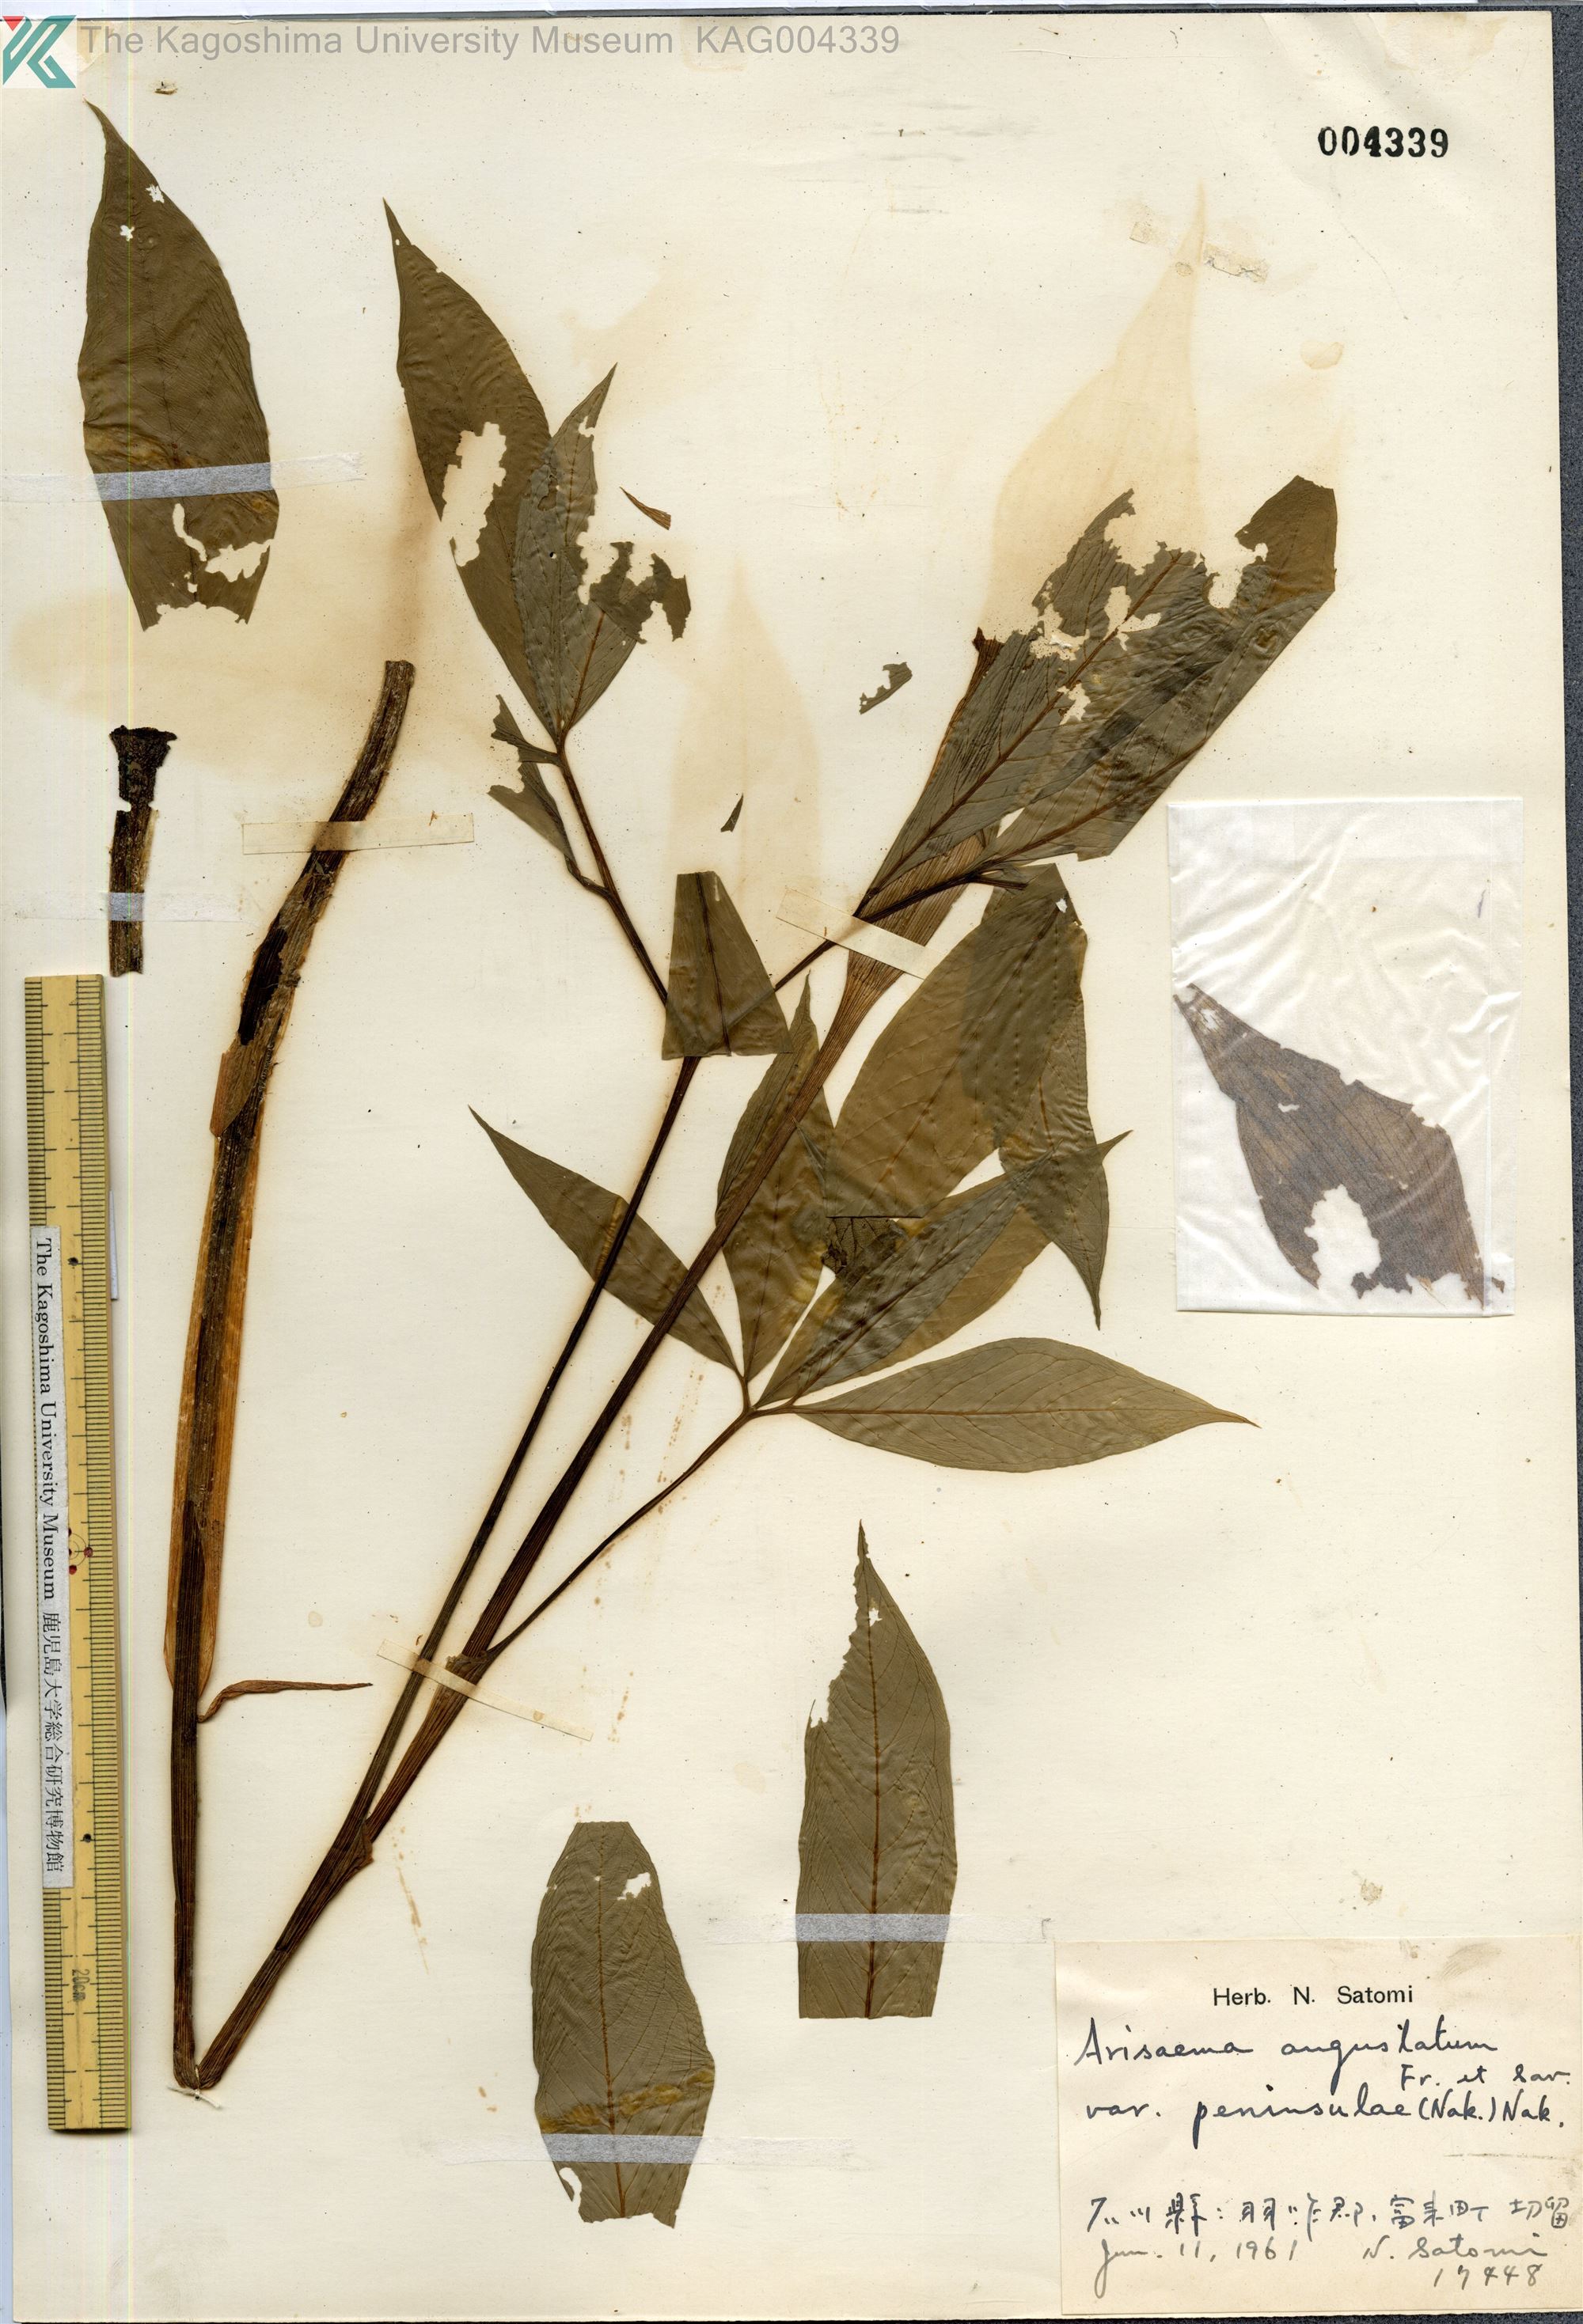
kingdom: Plantae
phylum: Tracheophyta
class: Liliopsida
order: Alismatales
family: Araceae
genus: Arisaema
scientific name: Arisaema angustatum
